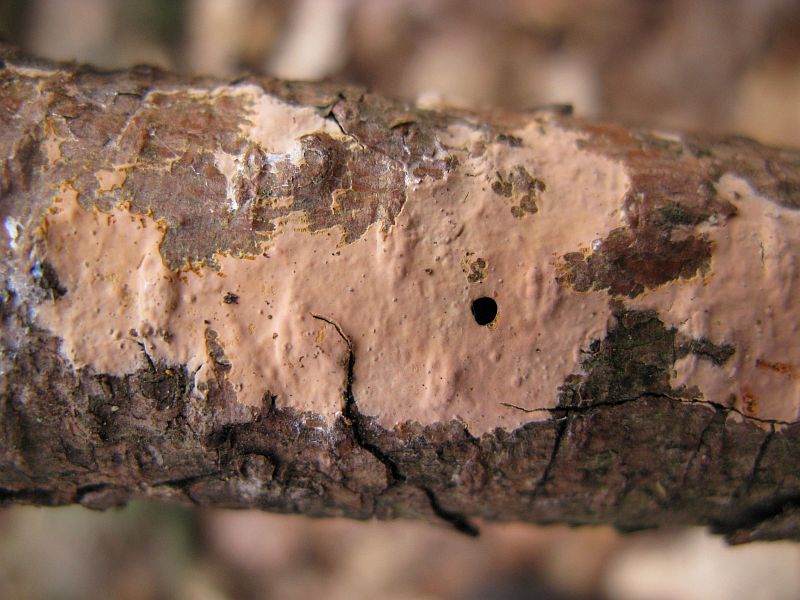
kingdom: Fungi
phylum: Basidiomycota
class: Agaricomycetes
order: Russulales
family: Peniophoraceae
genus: Peniophora
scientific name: Peniophora incarnata
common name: laksefarvet voksskind
